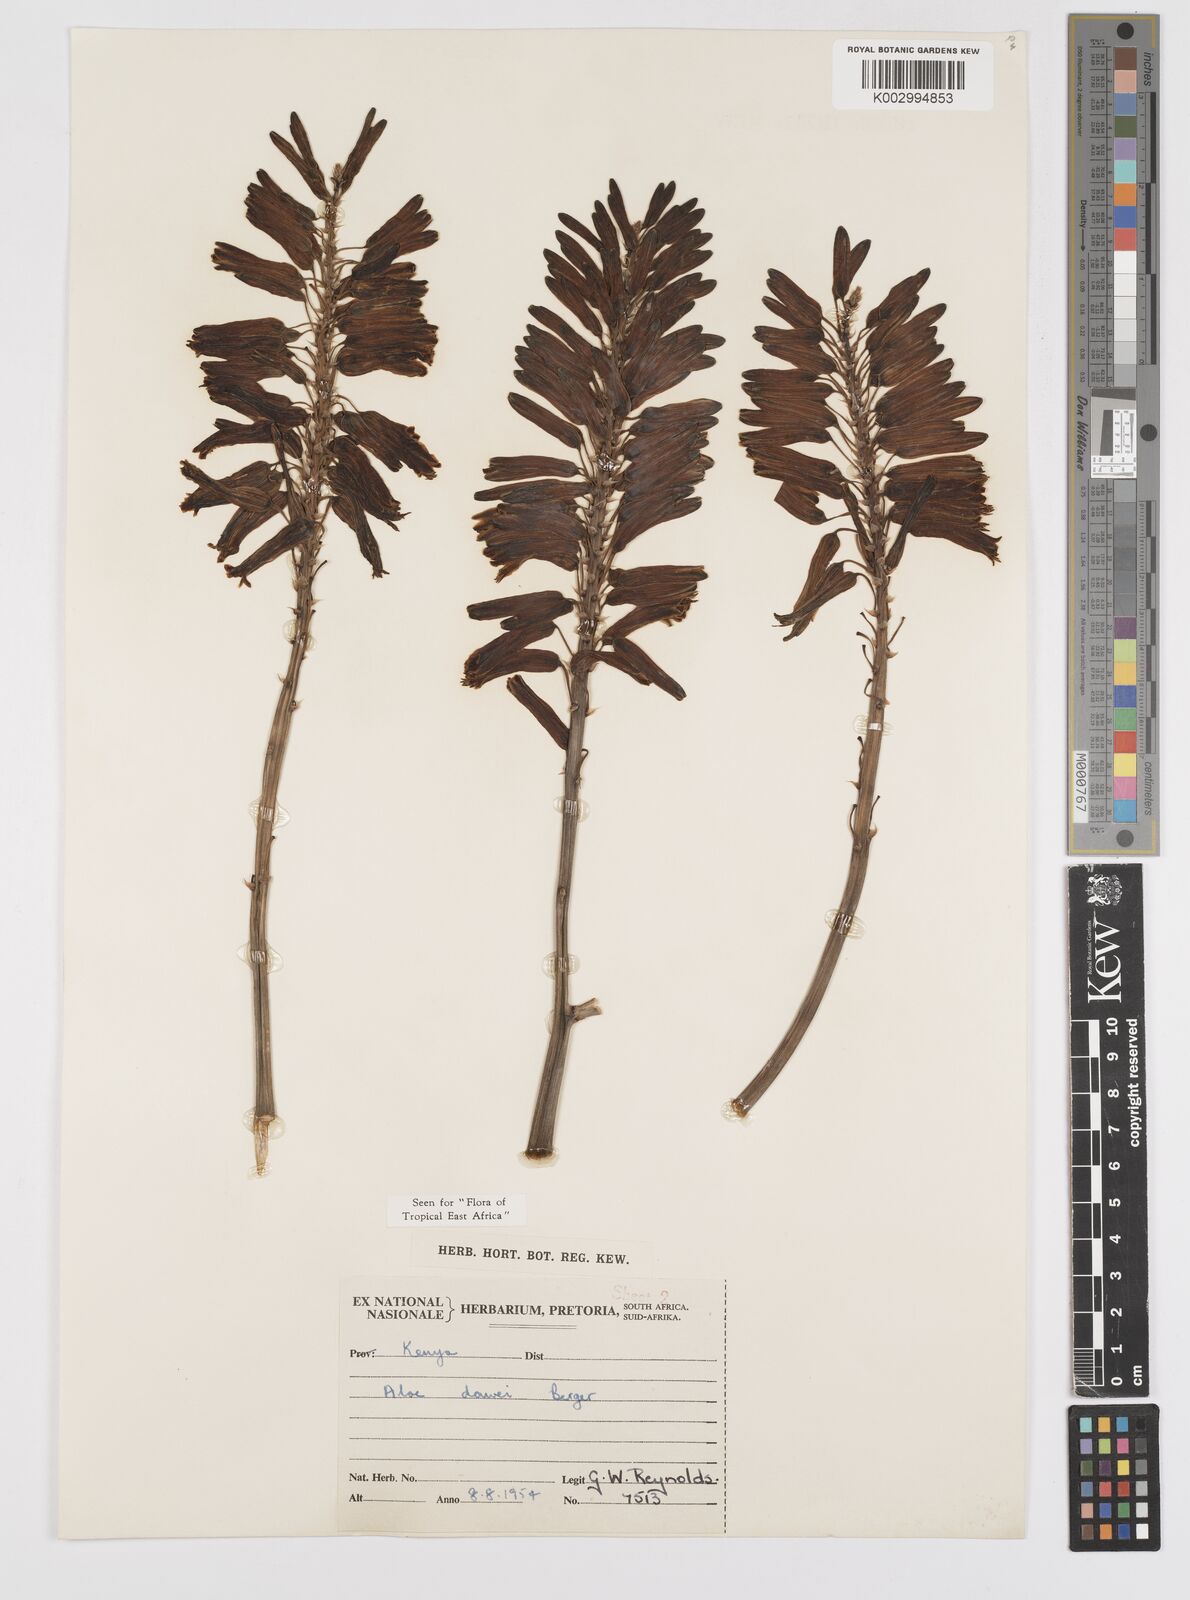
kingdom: Plantae
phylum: Tracheophyta
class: Liliopsida
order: Asparagales
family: Asphodelaceae
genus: Aloe
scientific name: Aloe dawei
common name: Orange flame aloe
